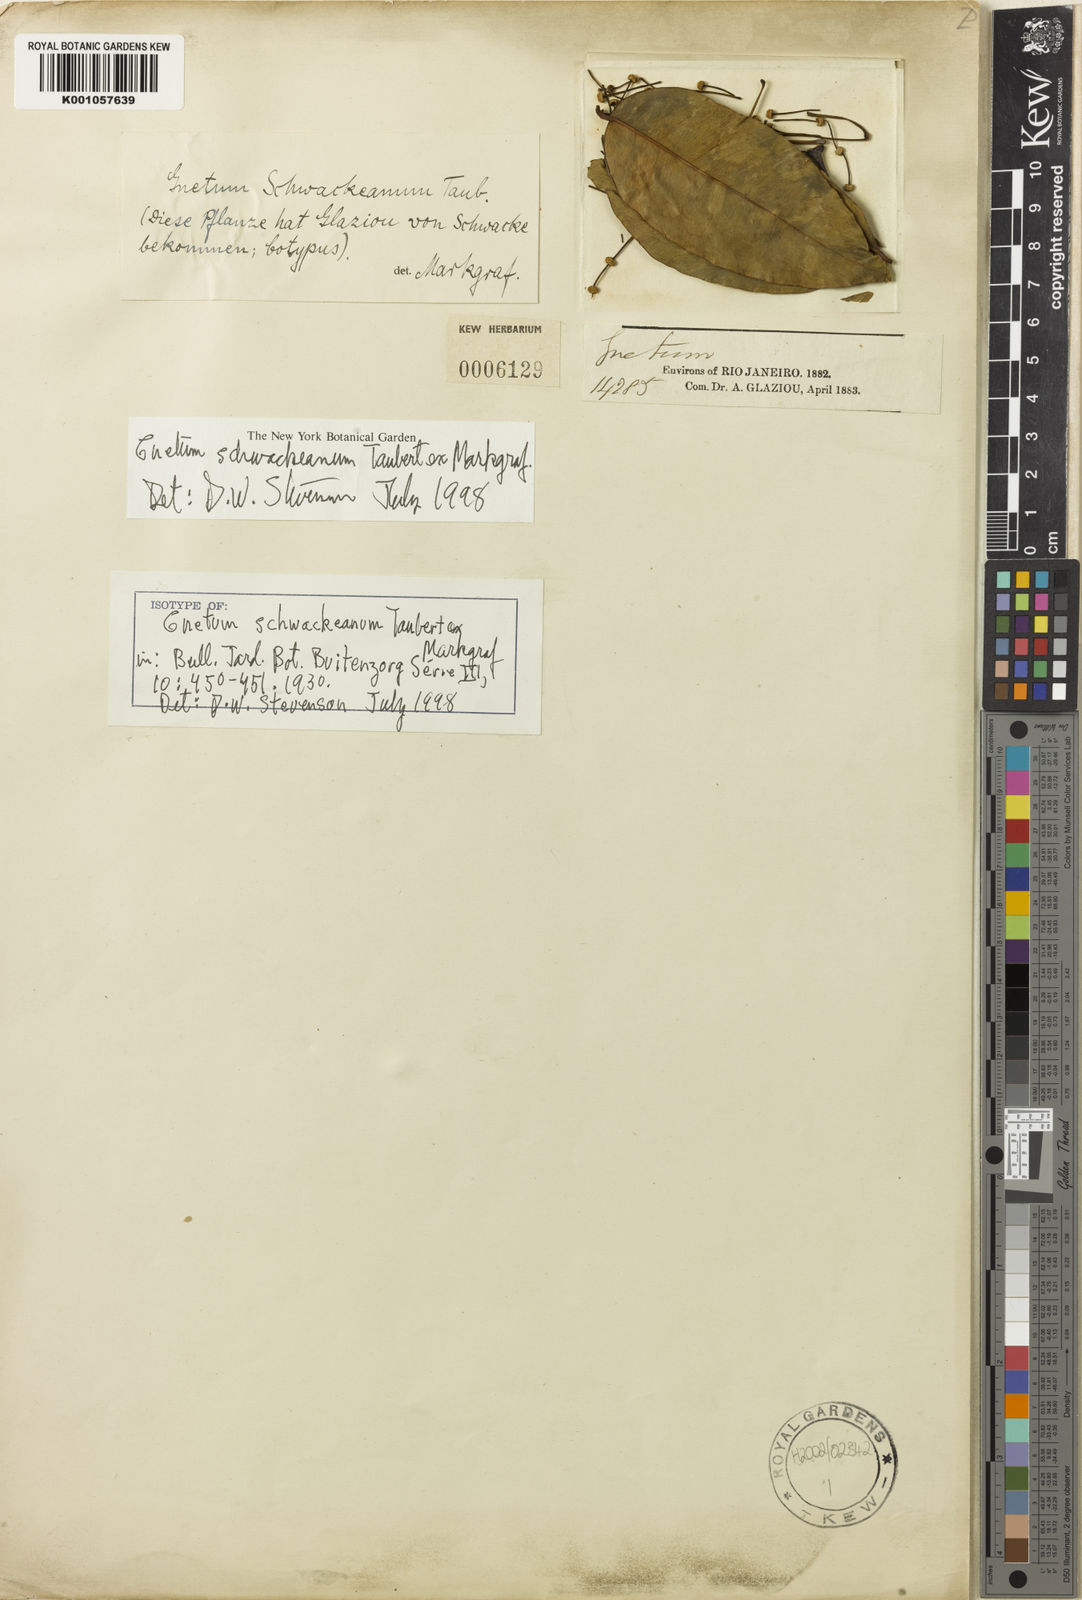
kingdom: Plantae
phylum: Tracheophyta
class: Gnetopsida
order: Gnetales
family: Gnetaceae
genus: Gnetum
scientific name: Gnetum
